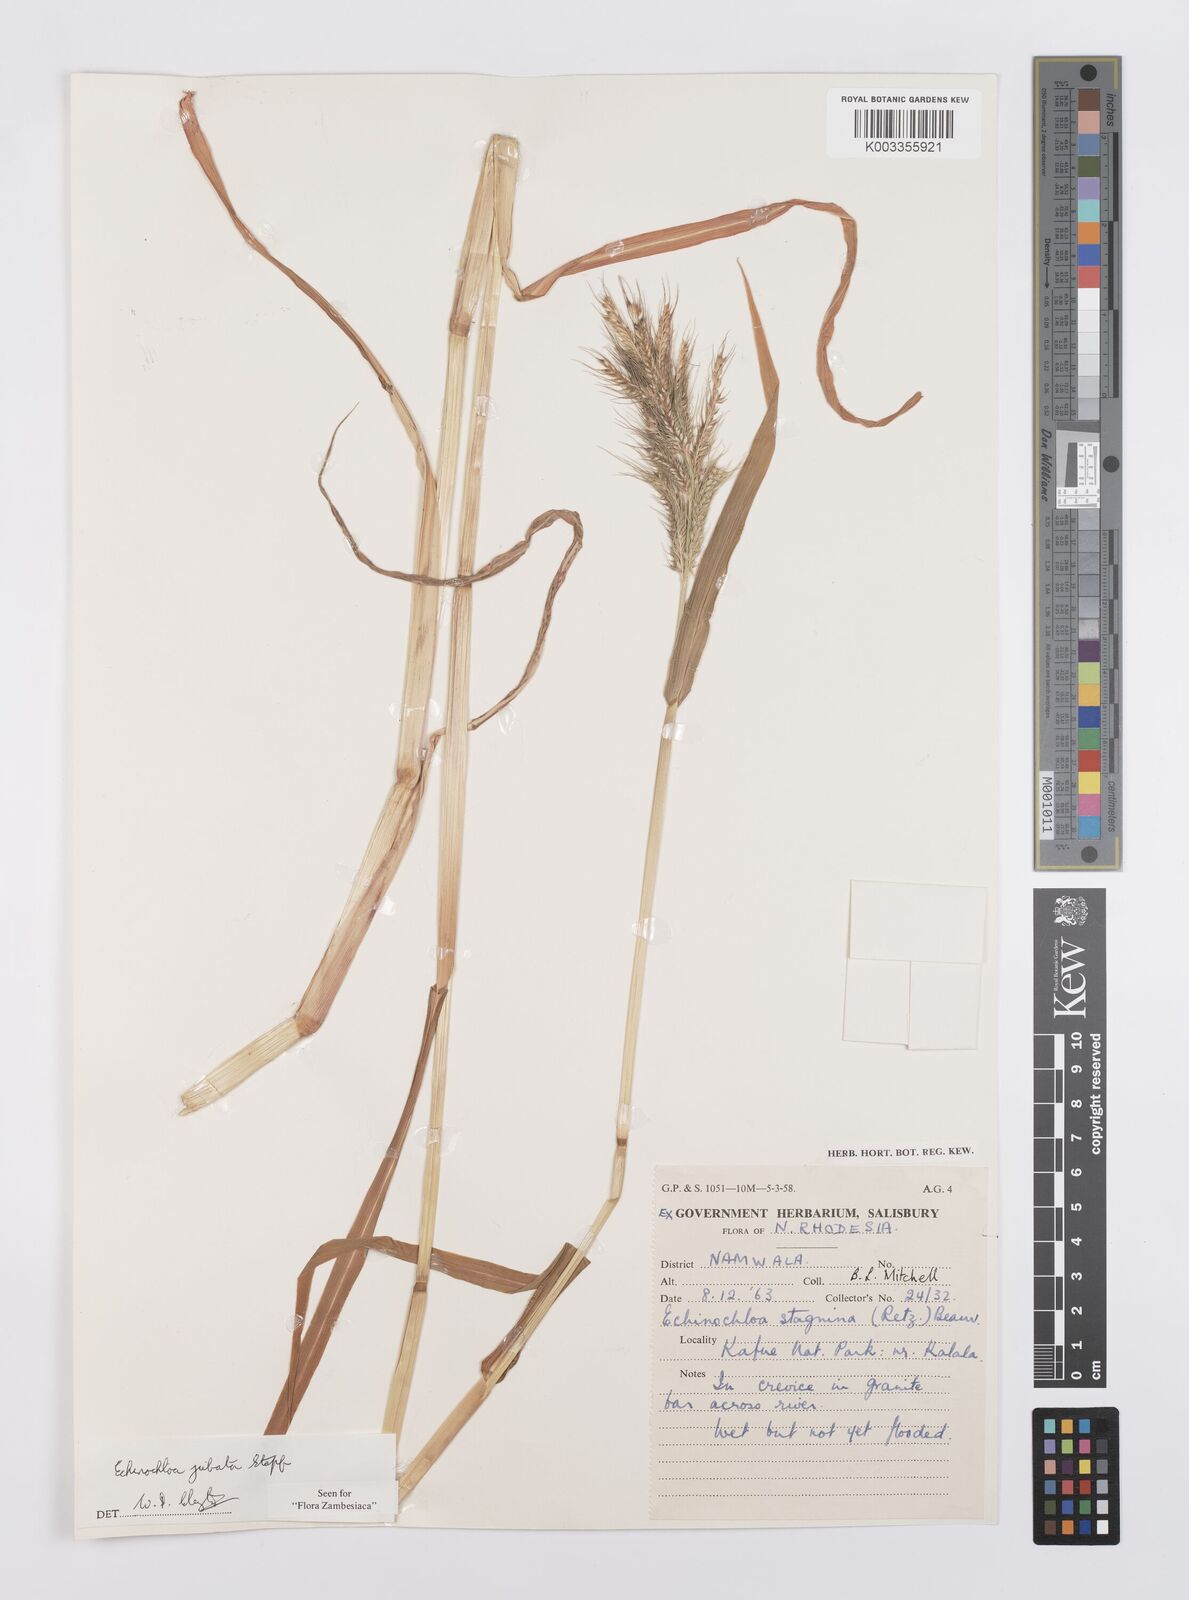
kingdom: Plantae
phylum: Tracheophyta
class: Liliopsida
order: Poales
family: Poaceae
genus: Echinochloa
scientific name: Echinochloa jubata
